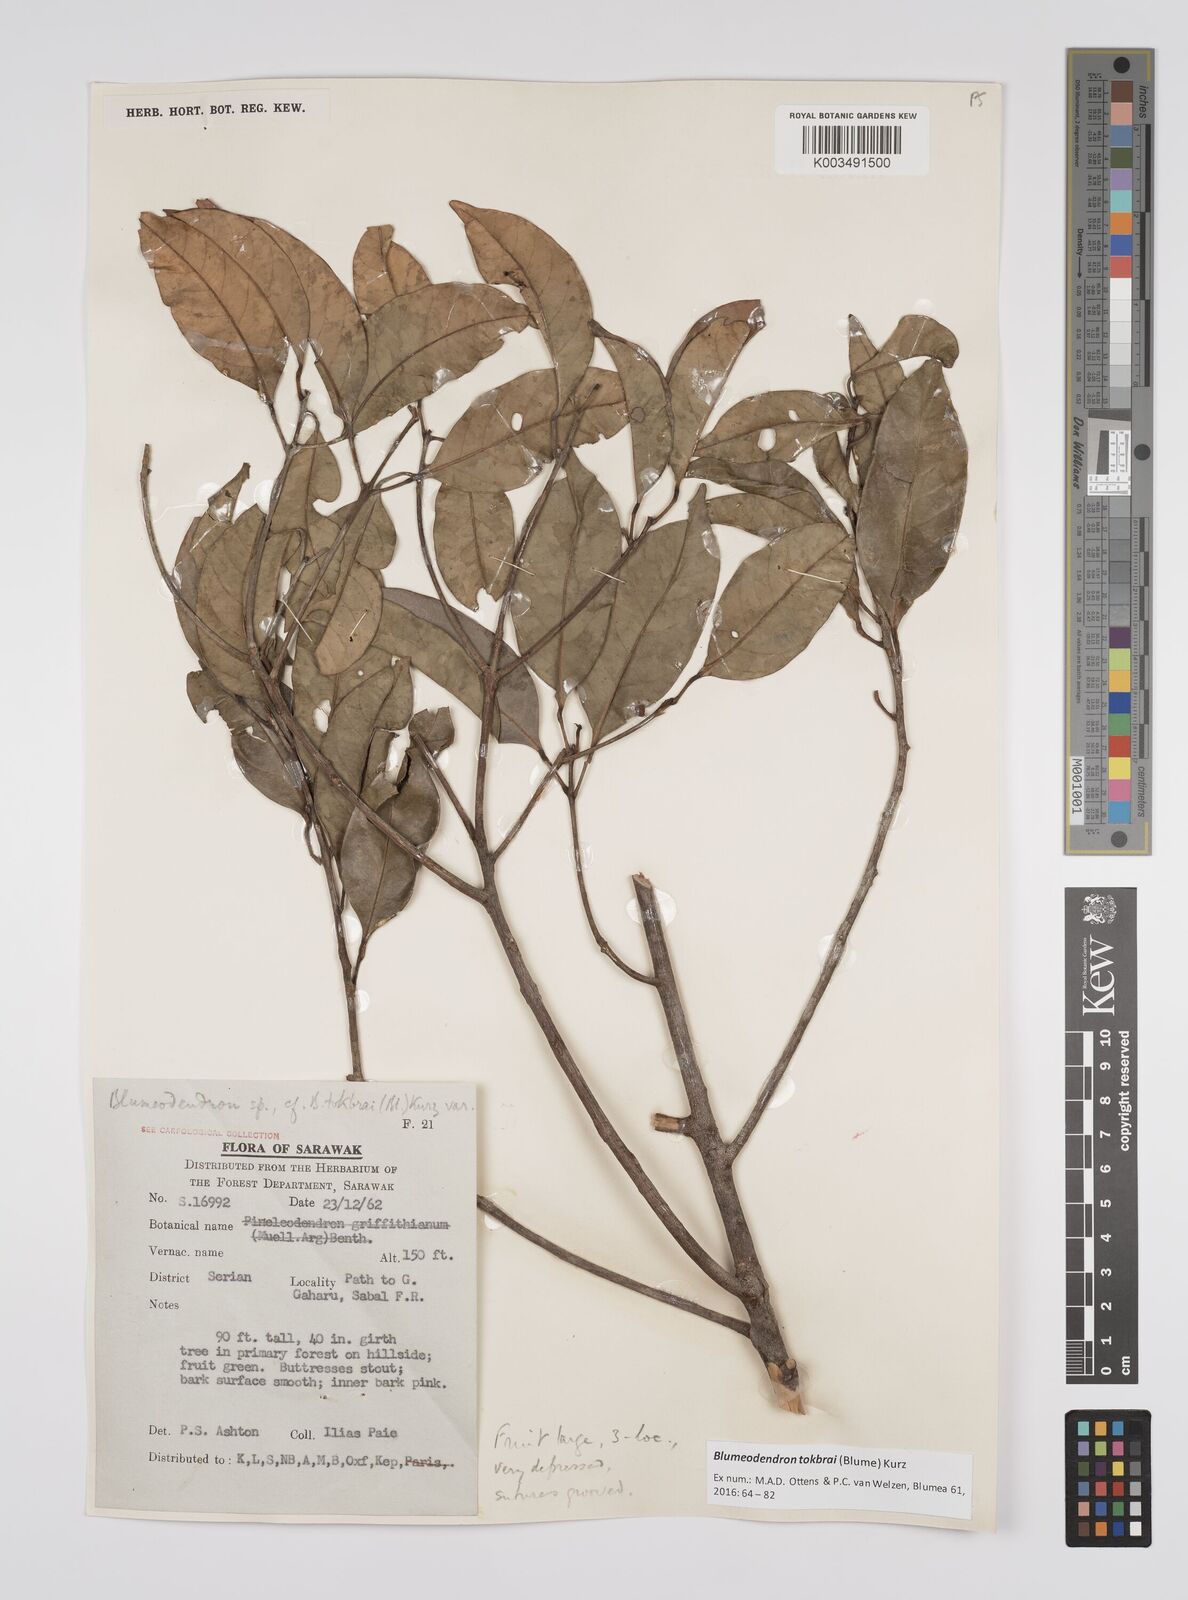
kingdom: Plantae
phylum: Tracheophyta
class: Magnoliopsida
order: Malpighiales
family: Euphorbiaceae
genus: Blumeodendron
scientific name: Blumeodendron tokbrai
